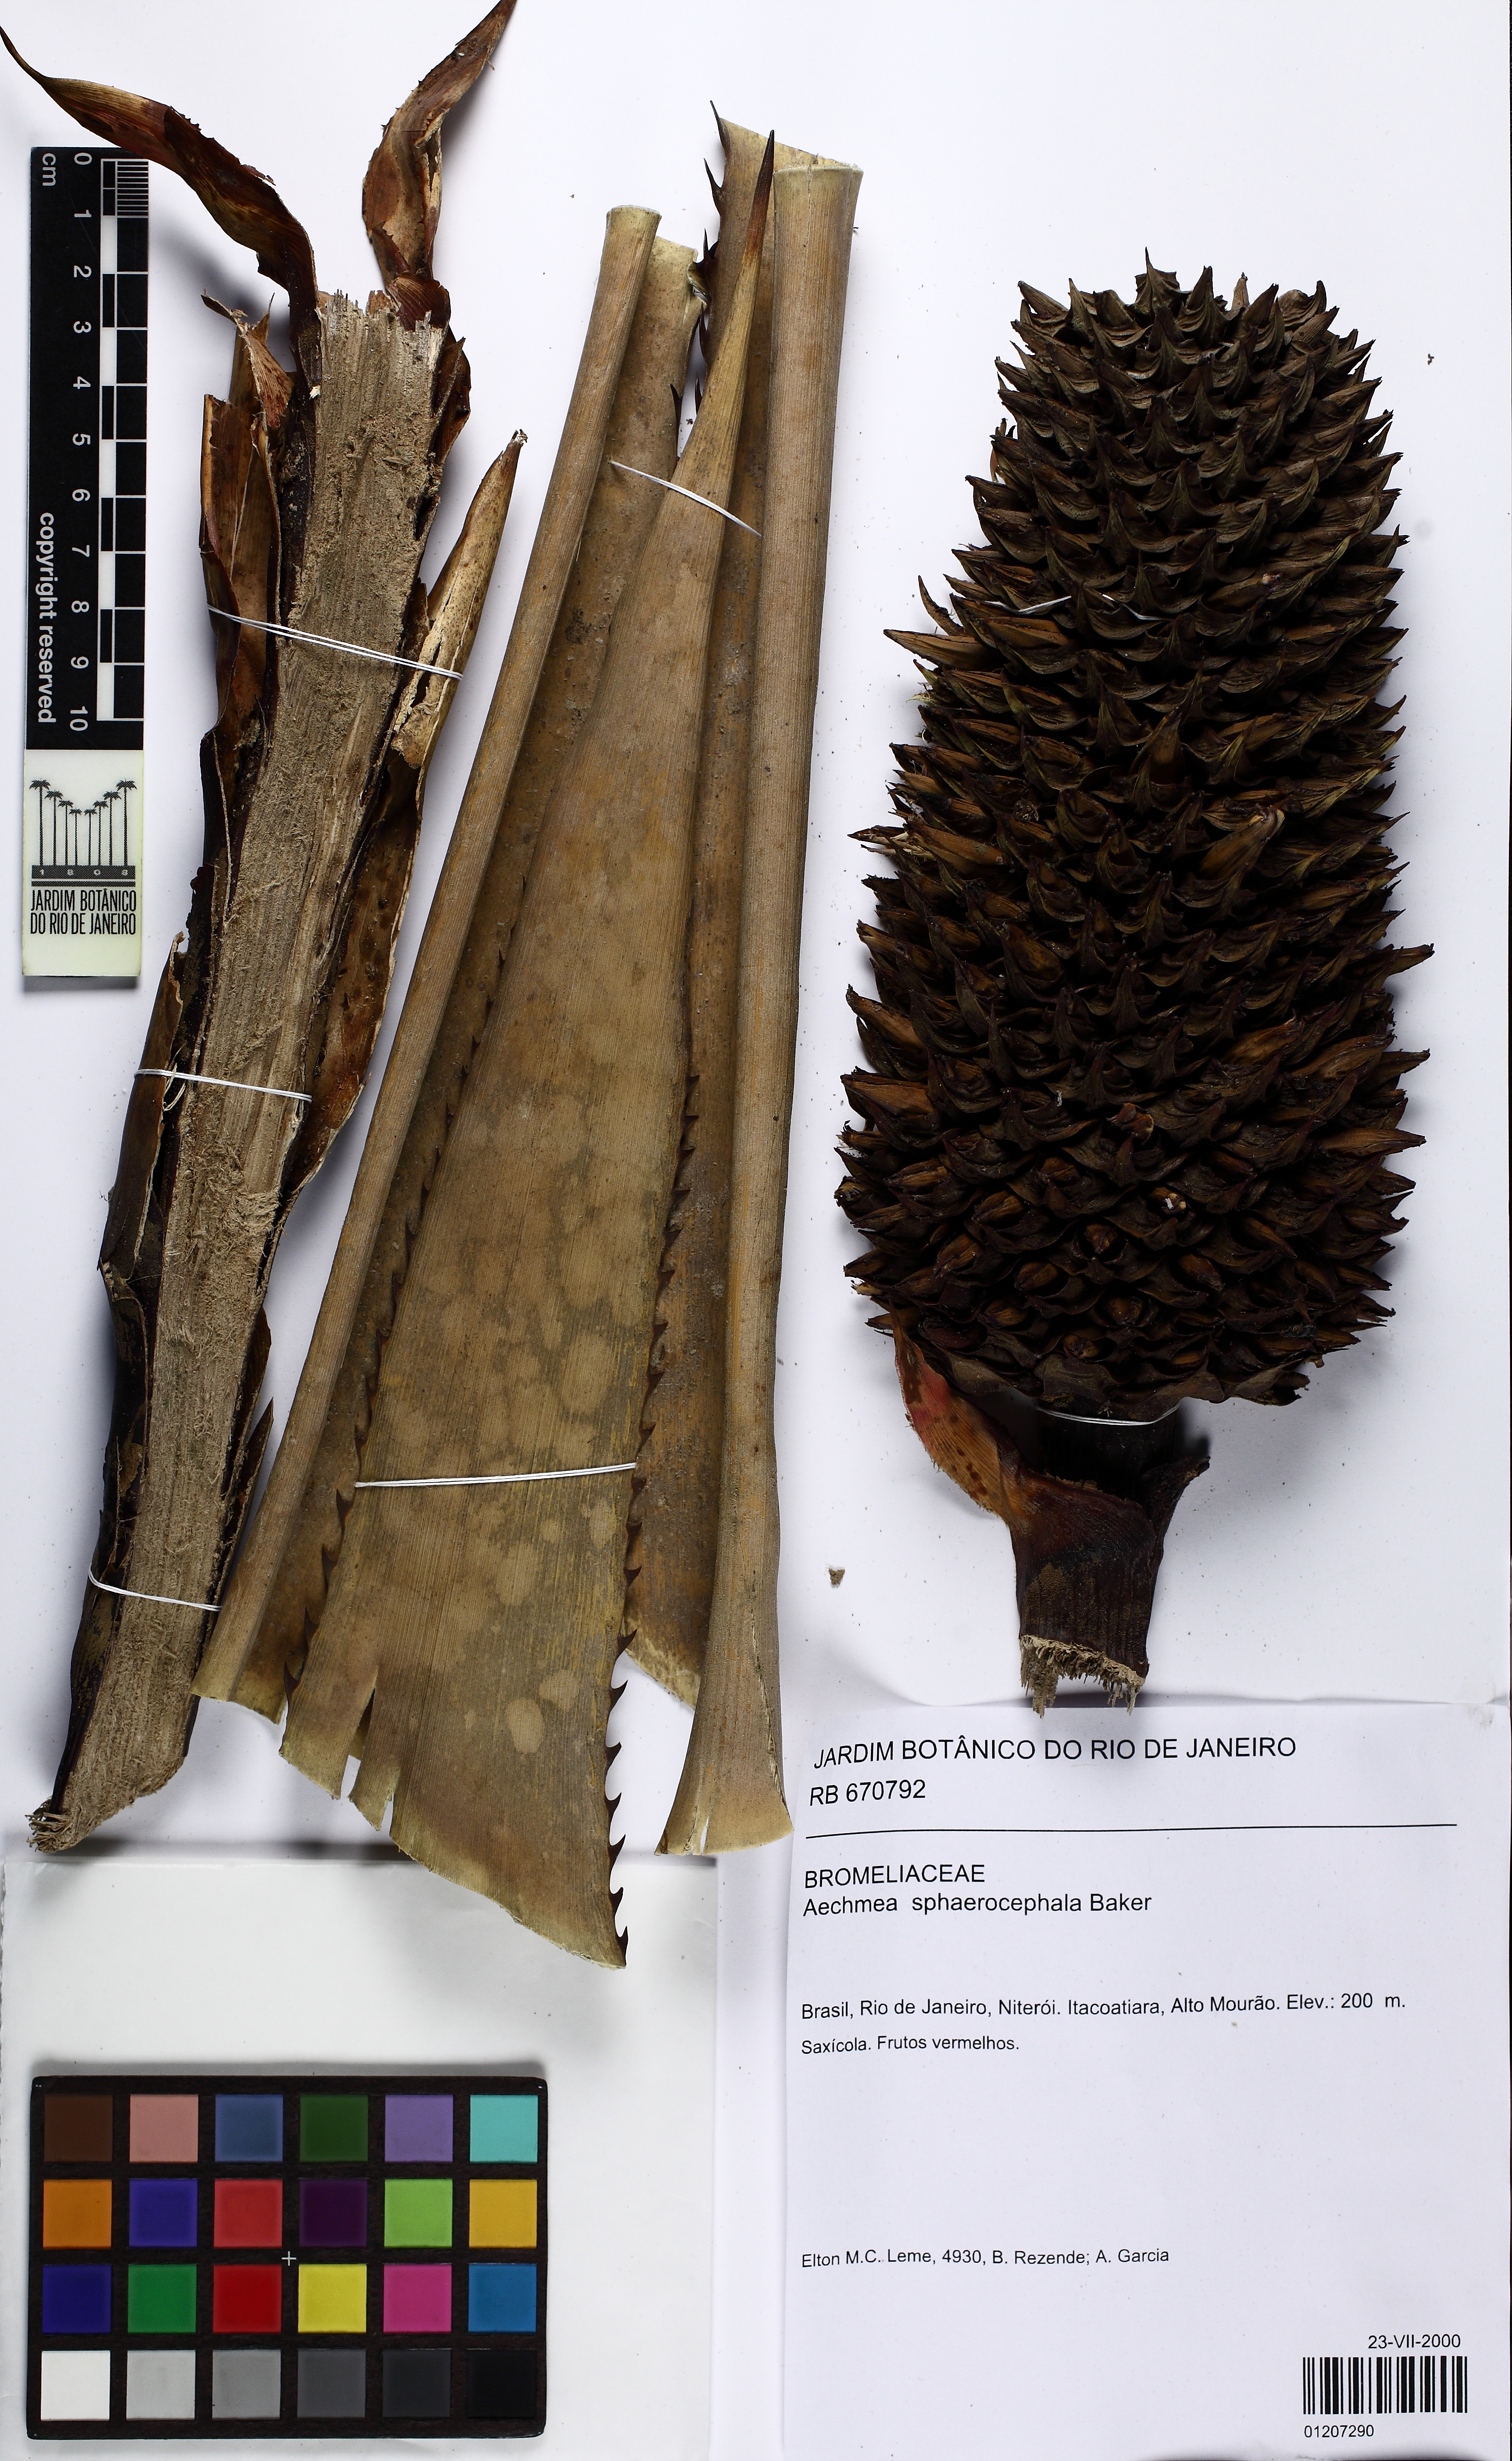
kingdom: Plantae
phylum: Tracheophyta
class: Liliopsida
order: Poales
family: Bromeliaceae
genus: Aechmea
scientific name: Aechmea sphaerocephala
